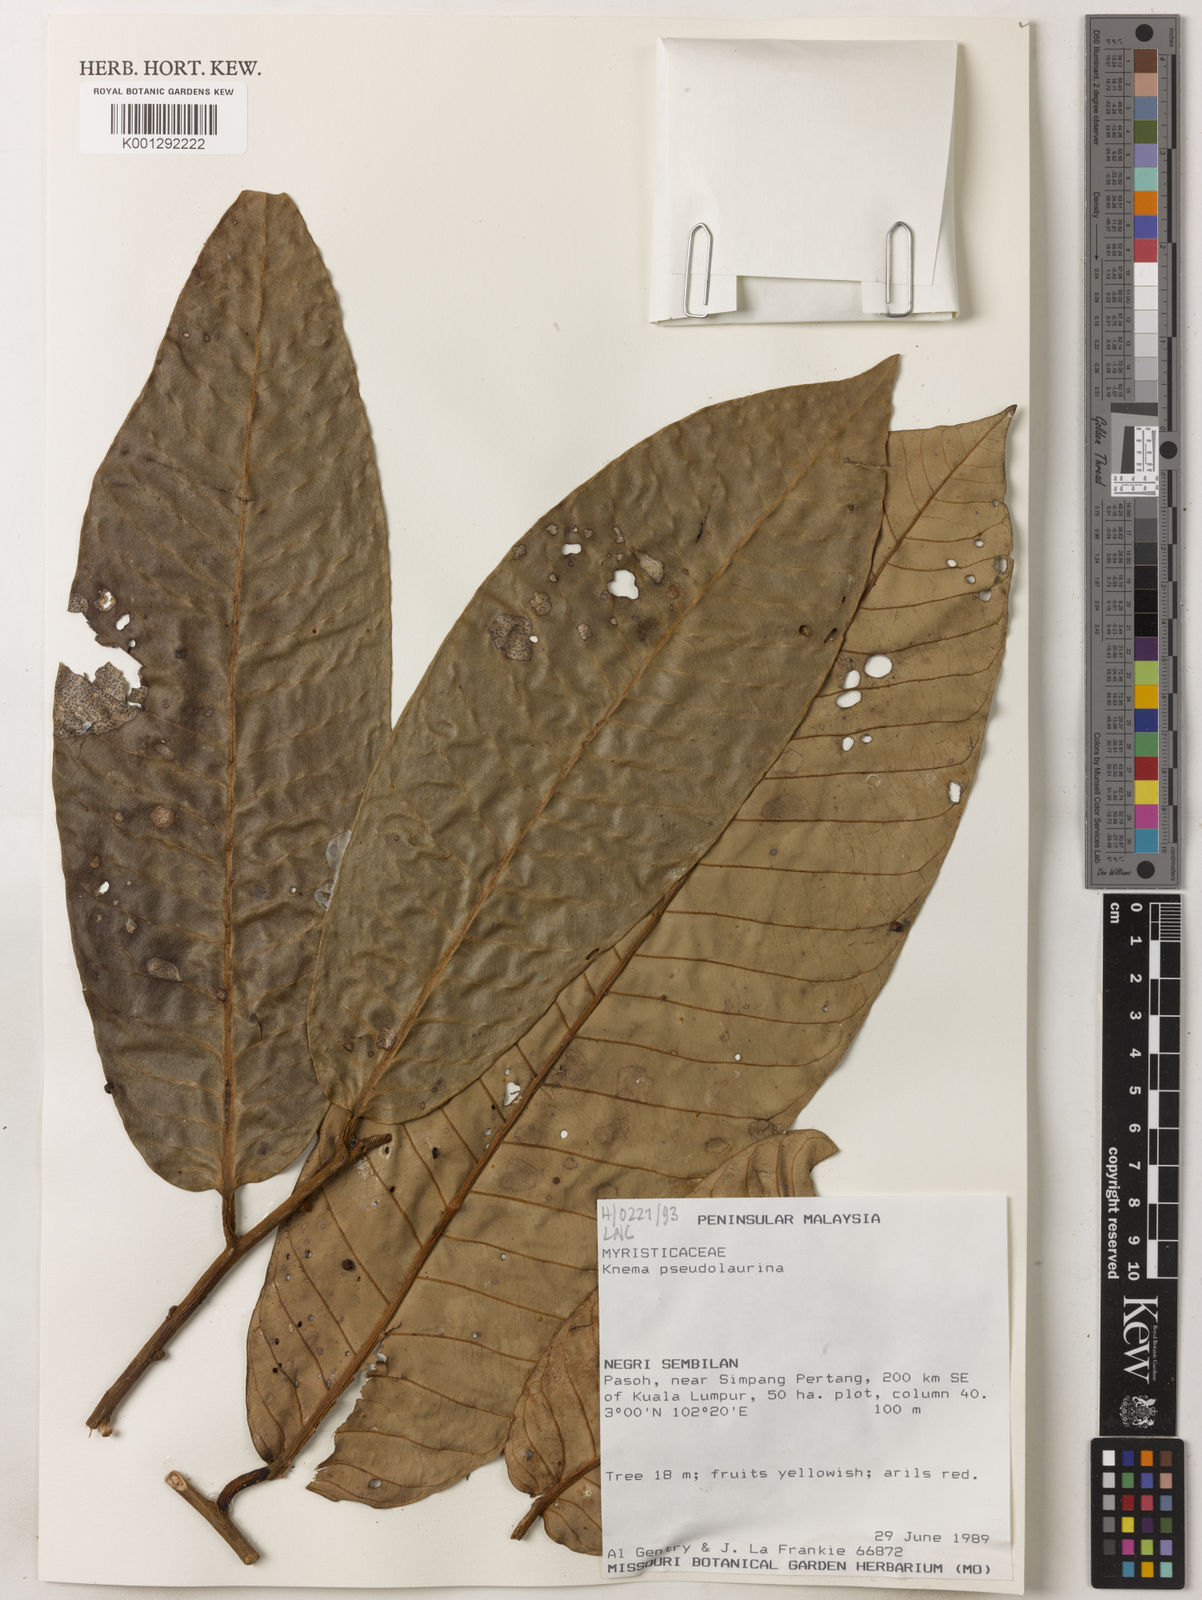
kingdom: Plantae
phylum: Tracheophyta
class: Magnoliopsida
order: Magnoliales
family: Myristicaceae
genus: Knema
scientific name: Knema pseudolaurina
